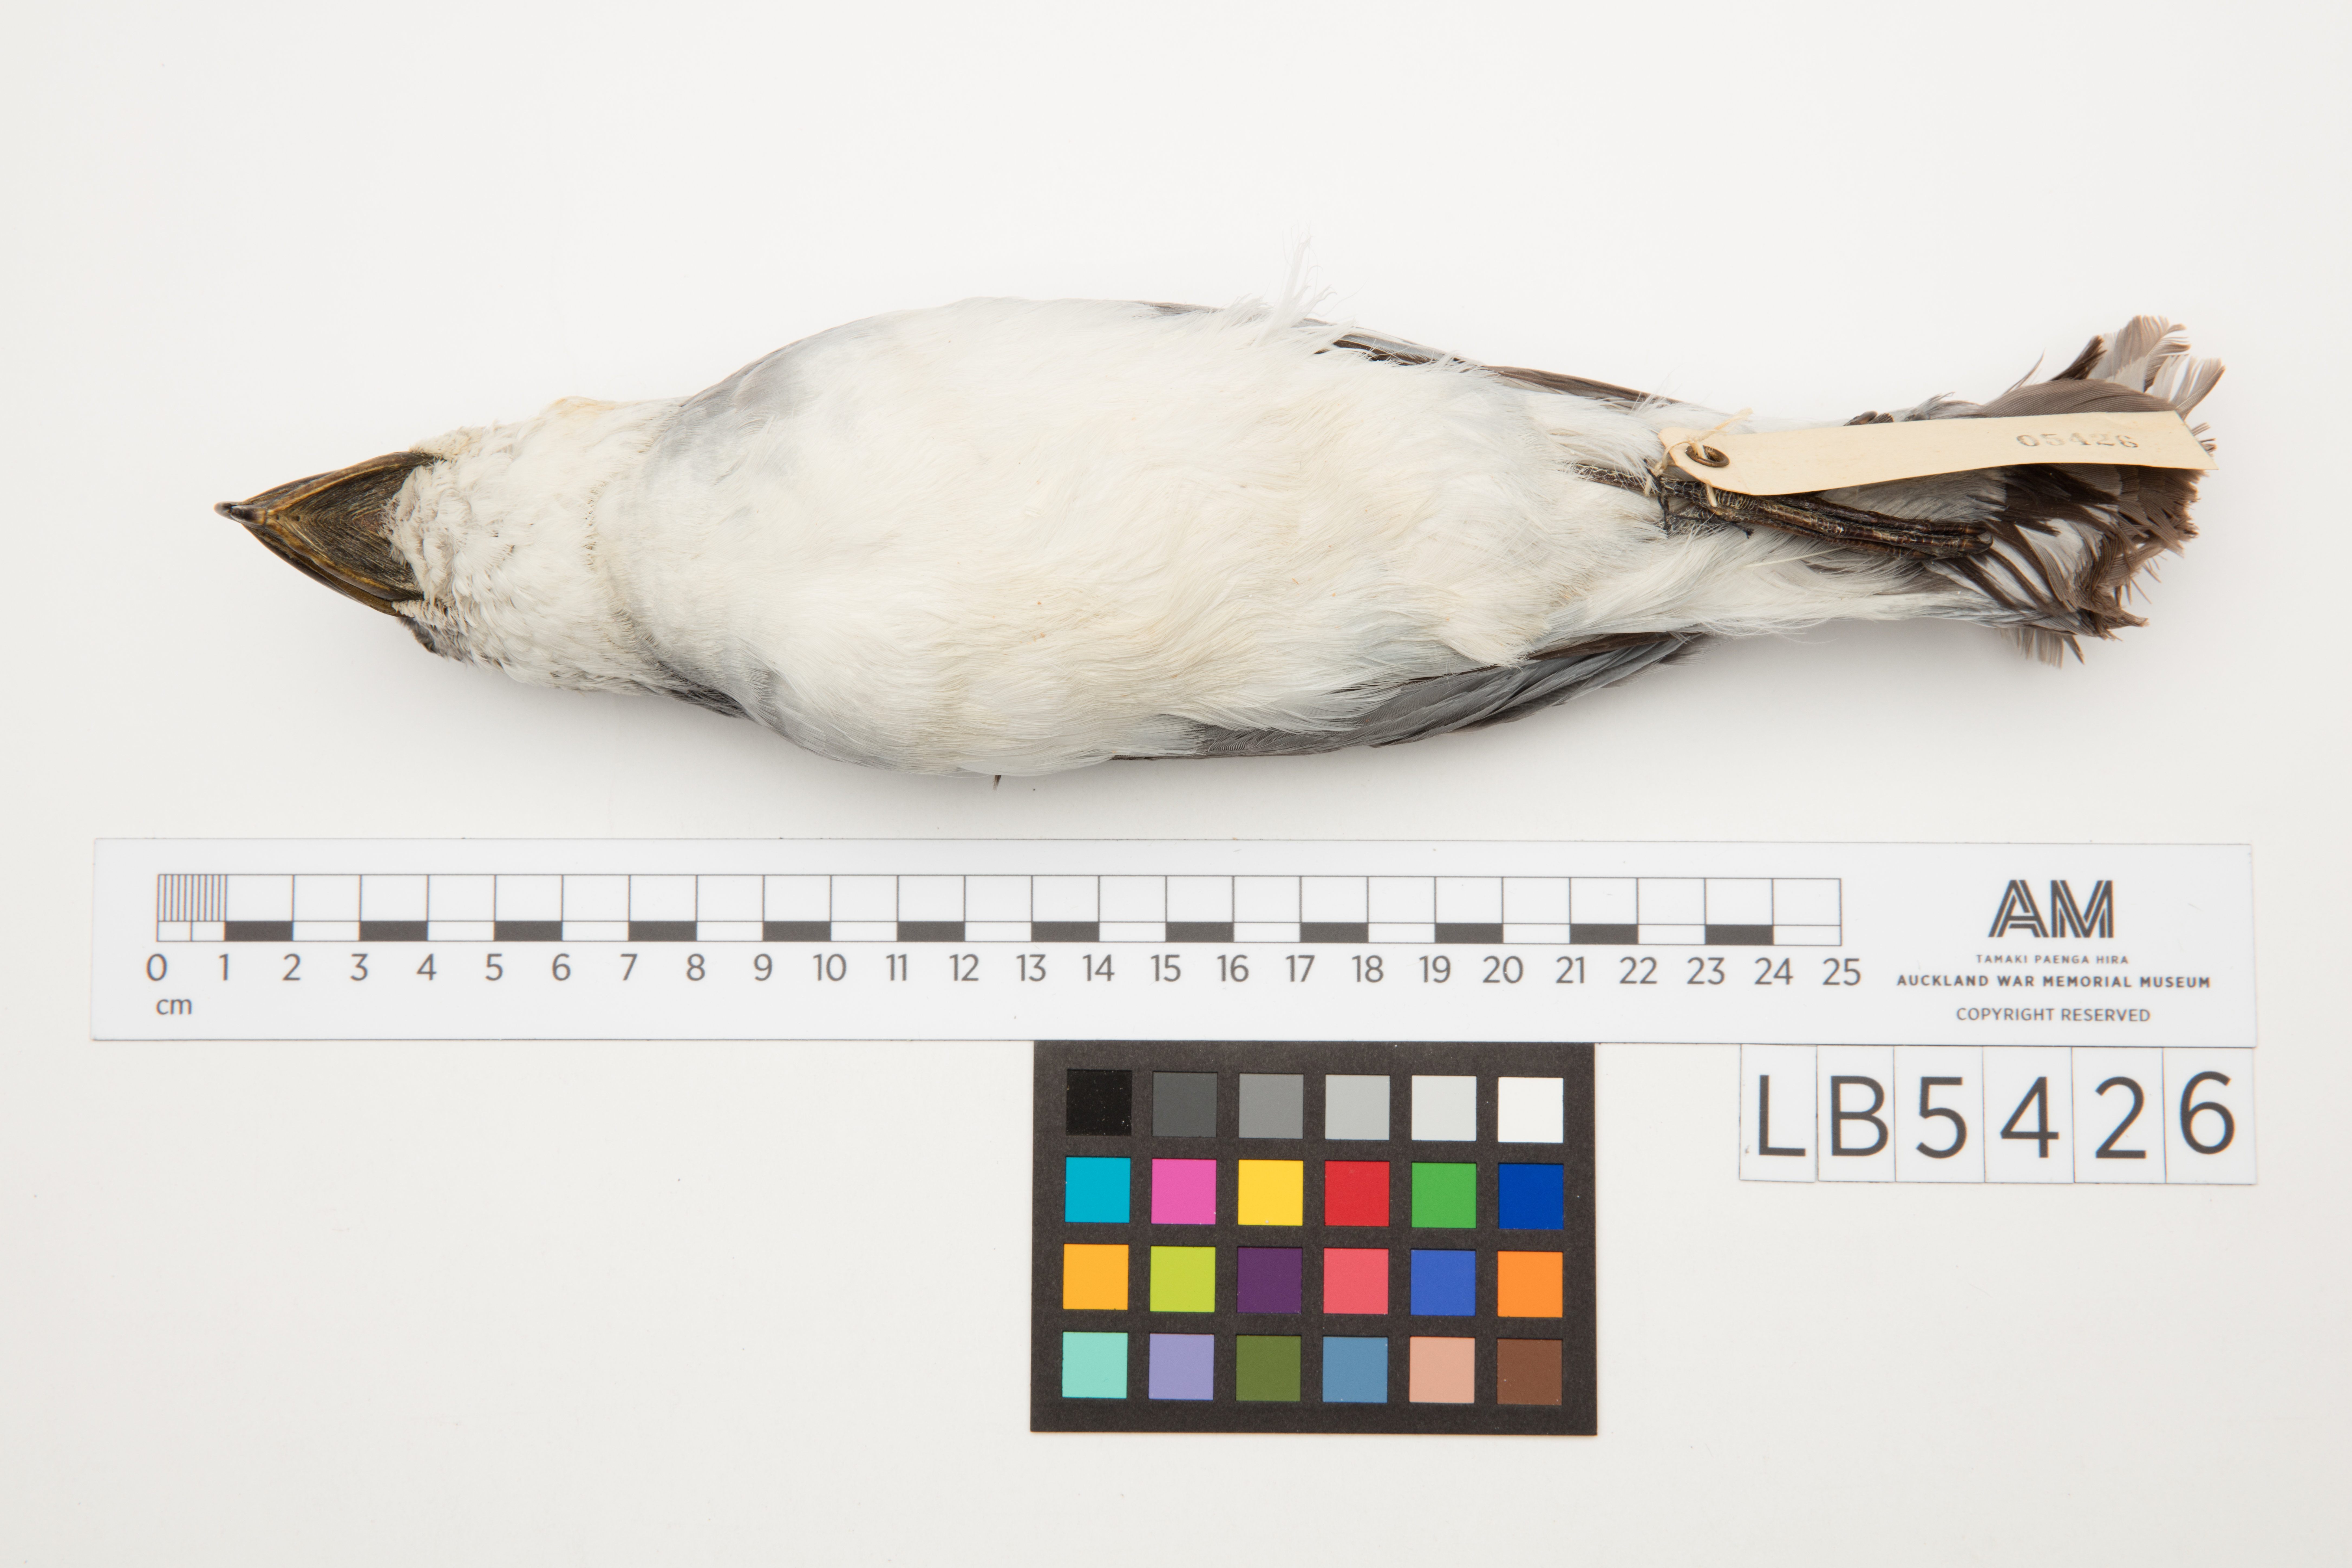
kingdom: Animalia
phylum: Chordata
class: Aves
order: Procellariiformes
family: Procellariidae
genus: Pachyptila
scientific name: Pachyptila vittata
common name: Broad-billed prion
